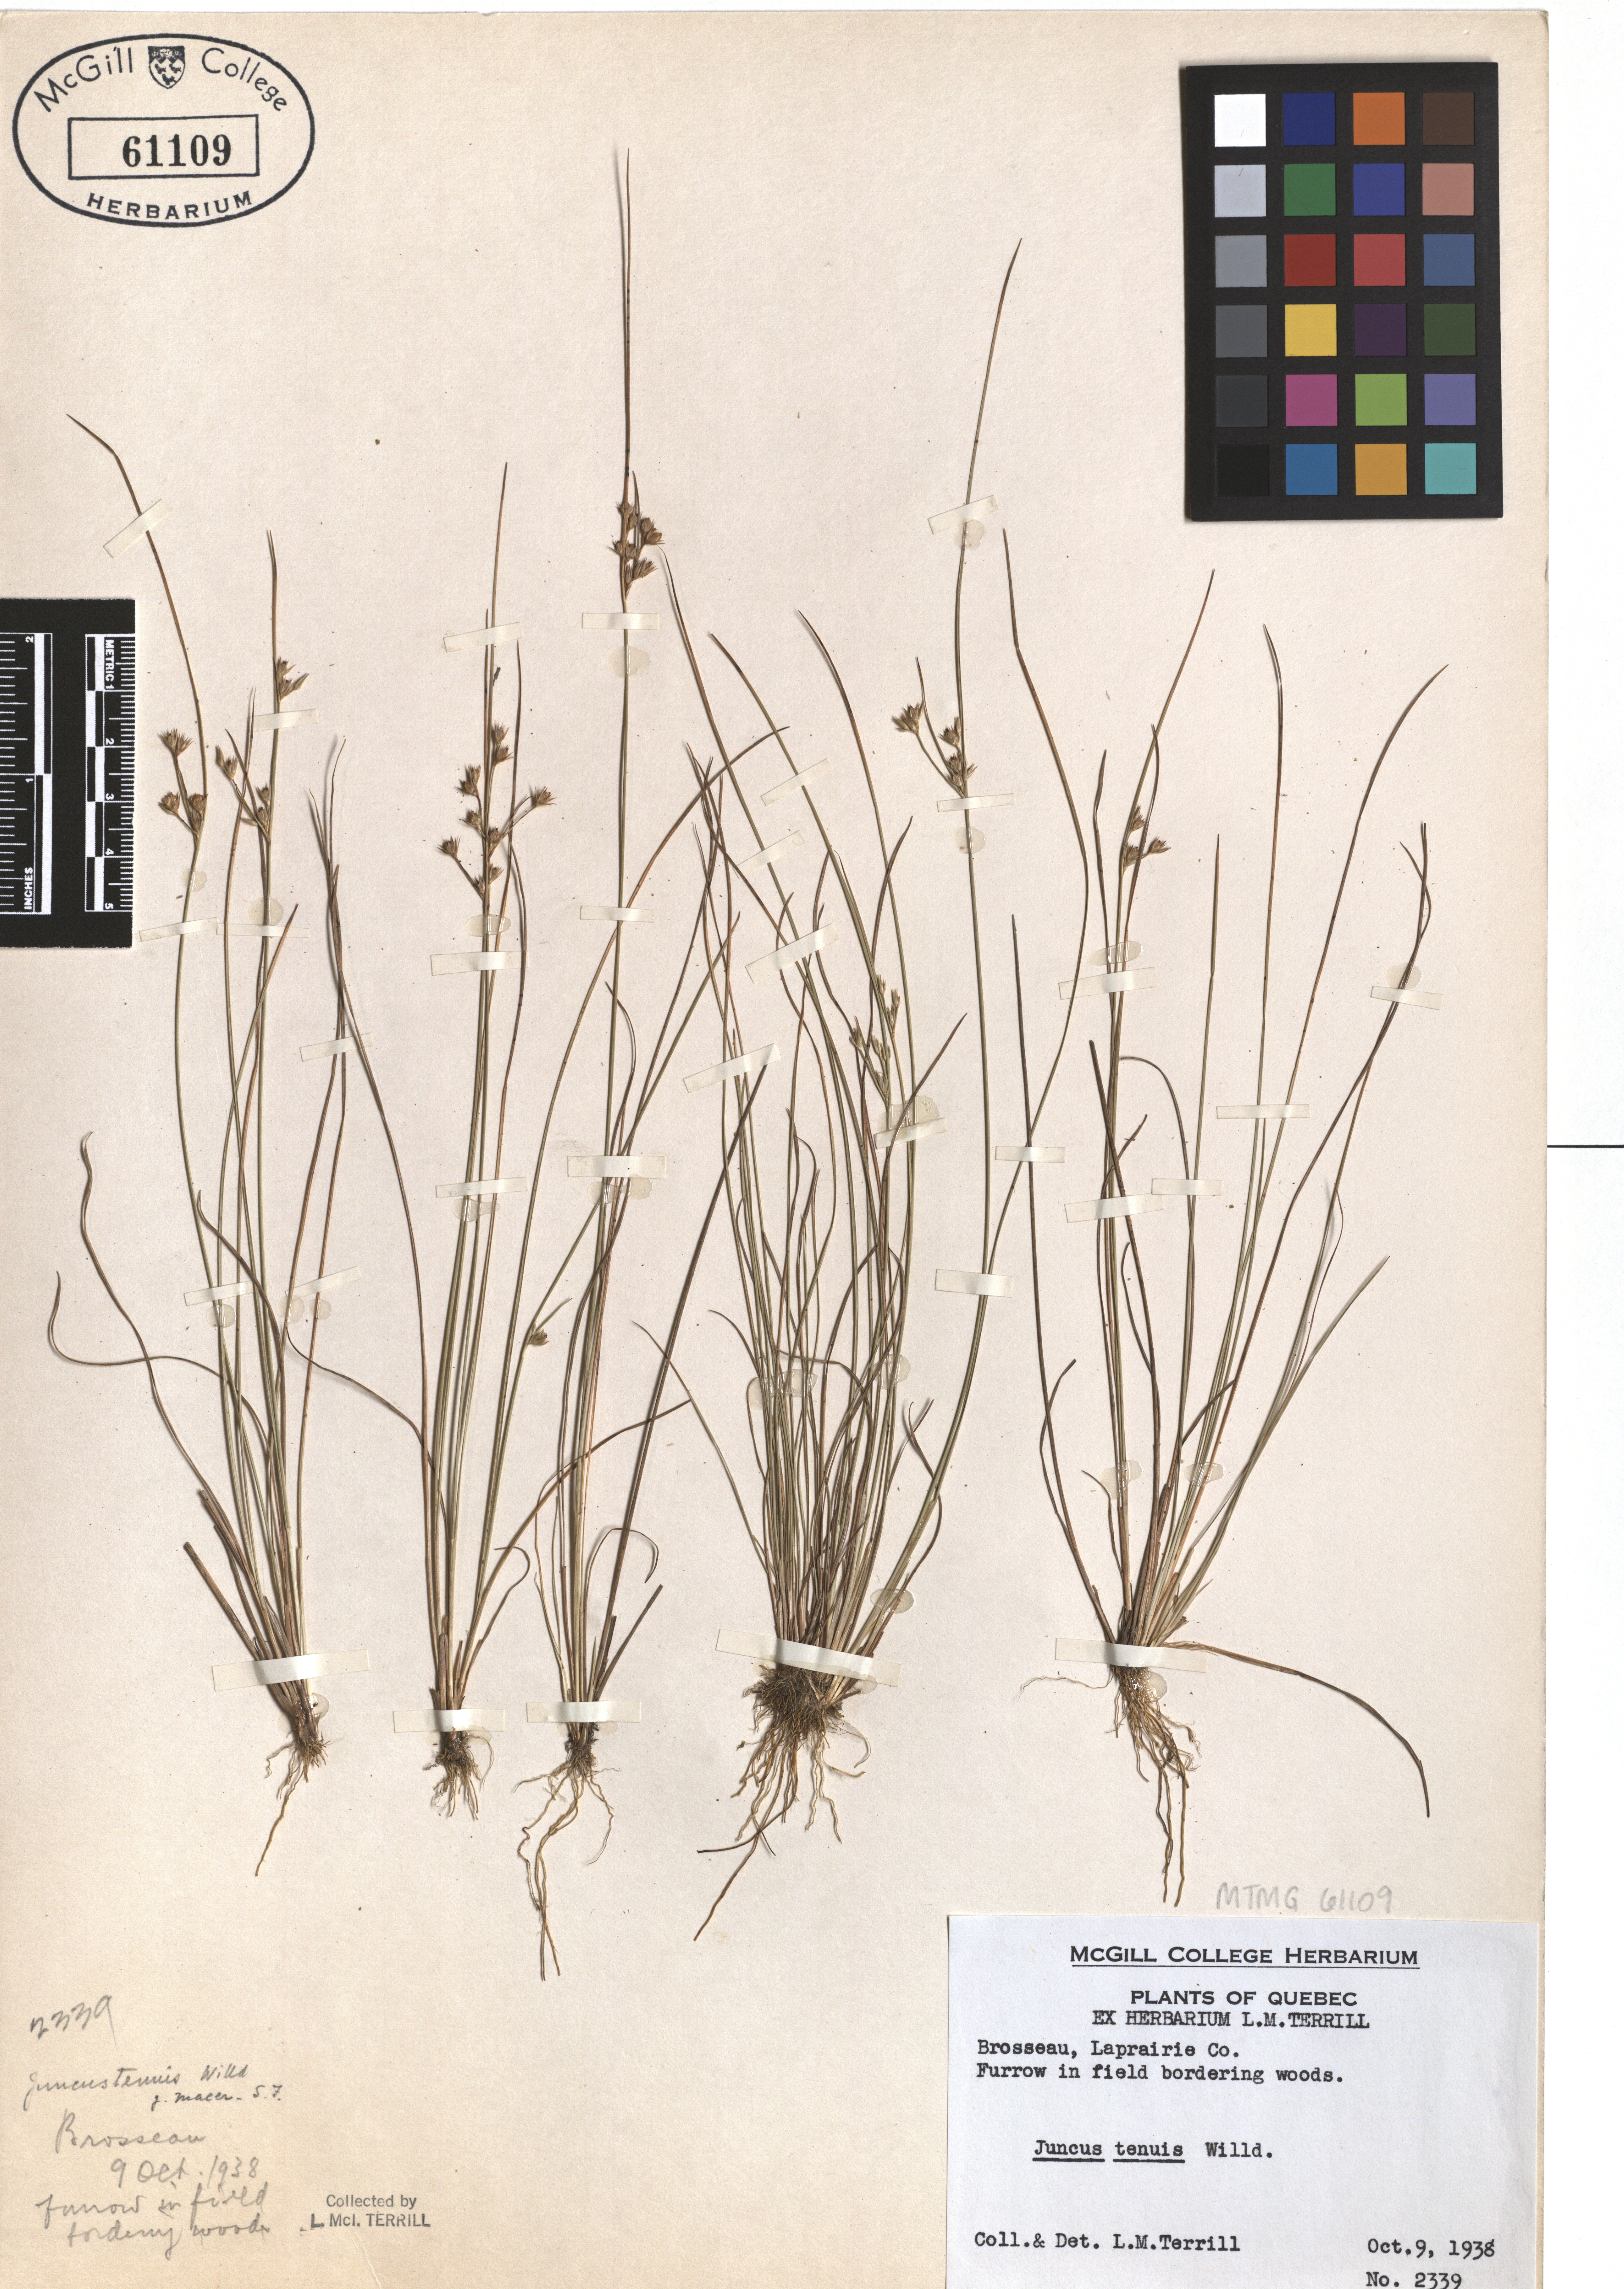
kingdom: Plantae
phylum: Tracheophyta
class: Liliopsida
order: Poales
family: Juncaceae
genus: Juncus
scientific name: Juncus tenuis
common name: Slender rush
